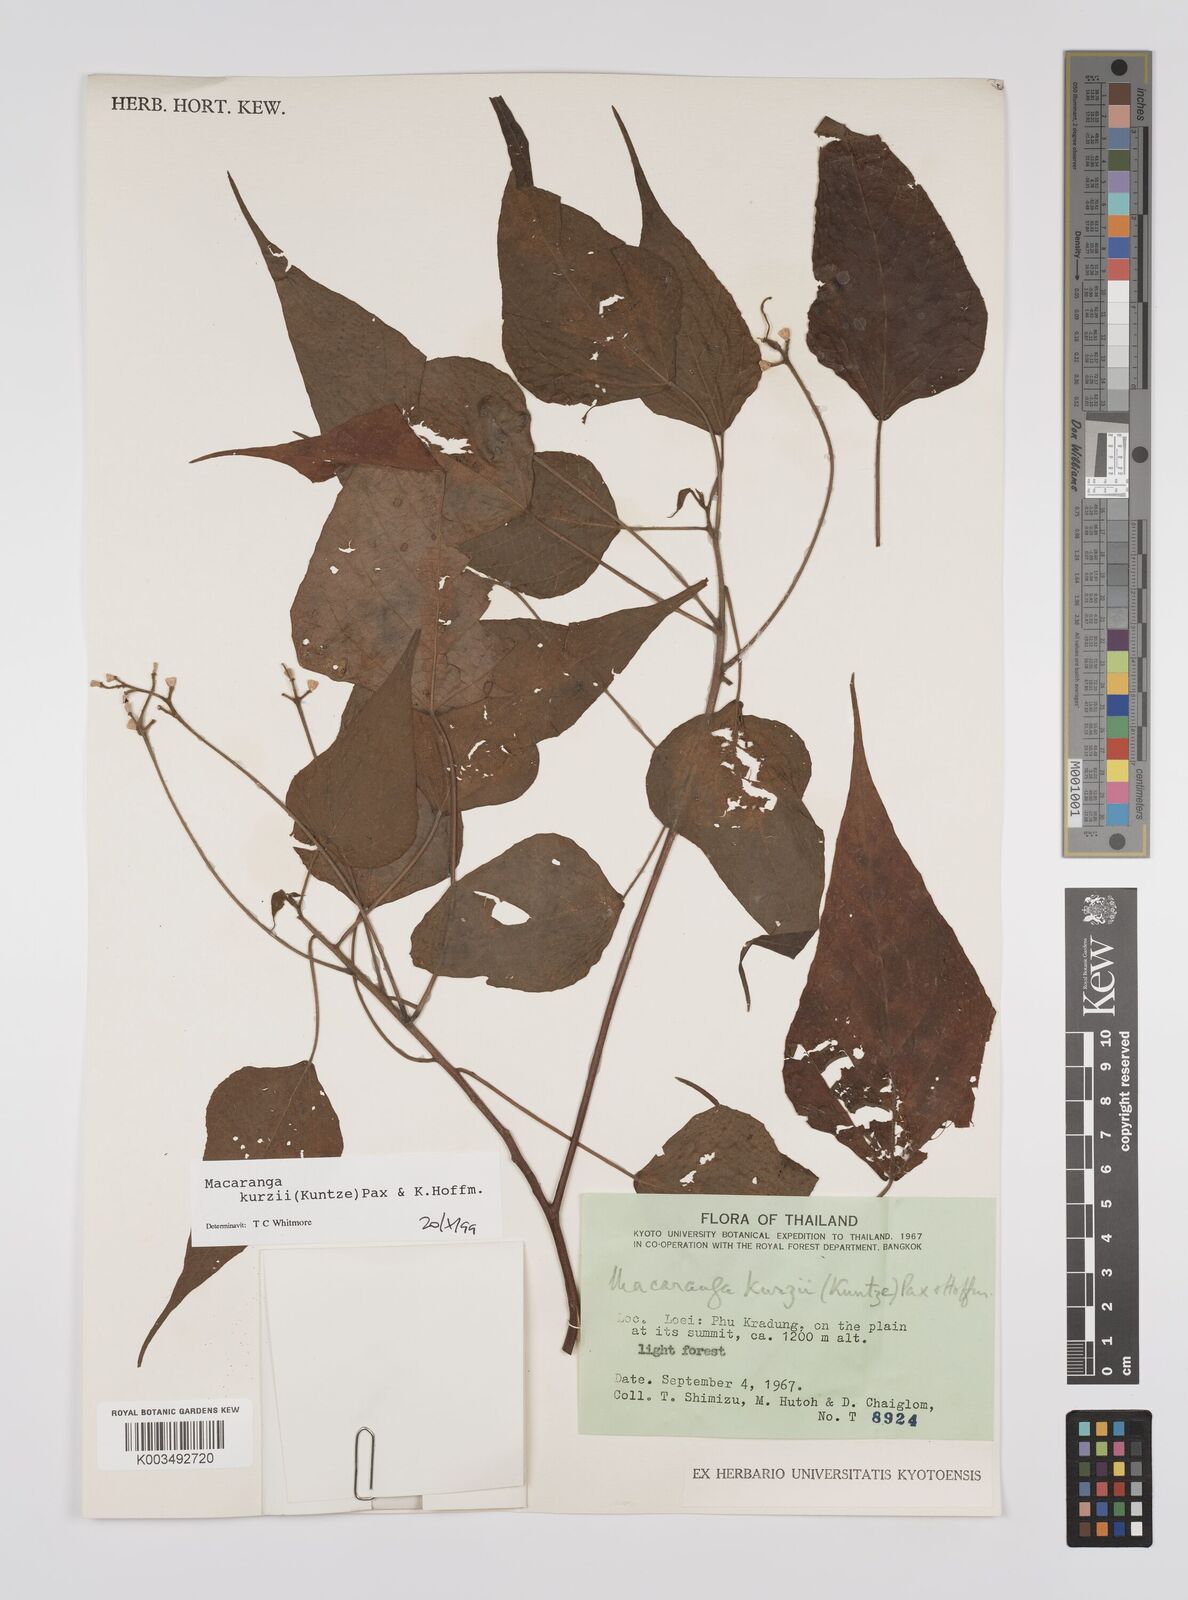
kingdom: Plantae
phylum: Tracheophyta
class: Magnoliopsida
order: Malpighiales
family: Euphorbiaceae
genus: Macaranga
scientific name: Macaranga kurzii
